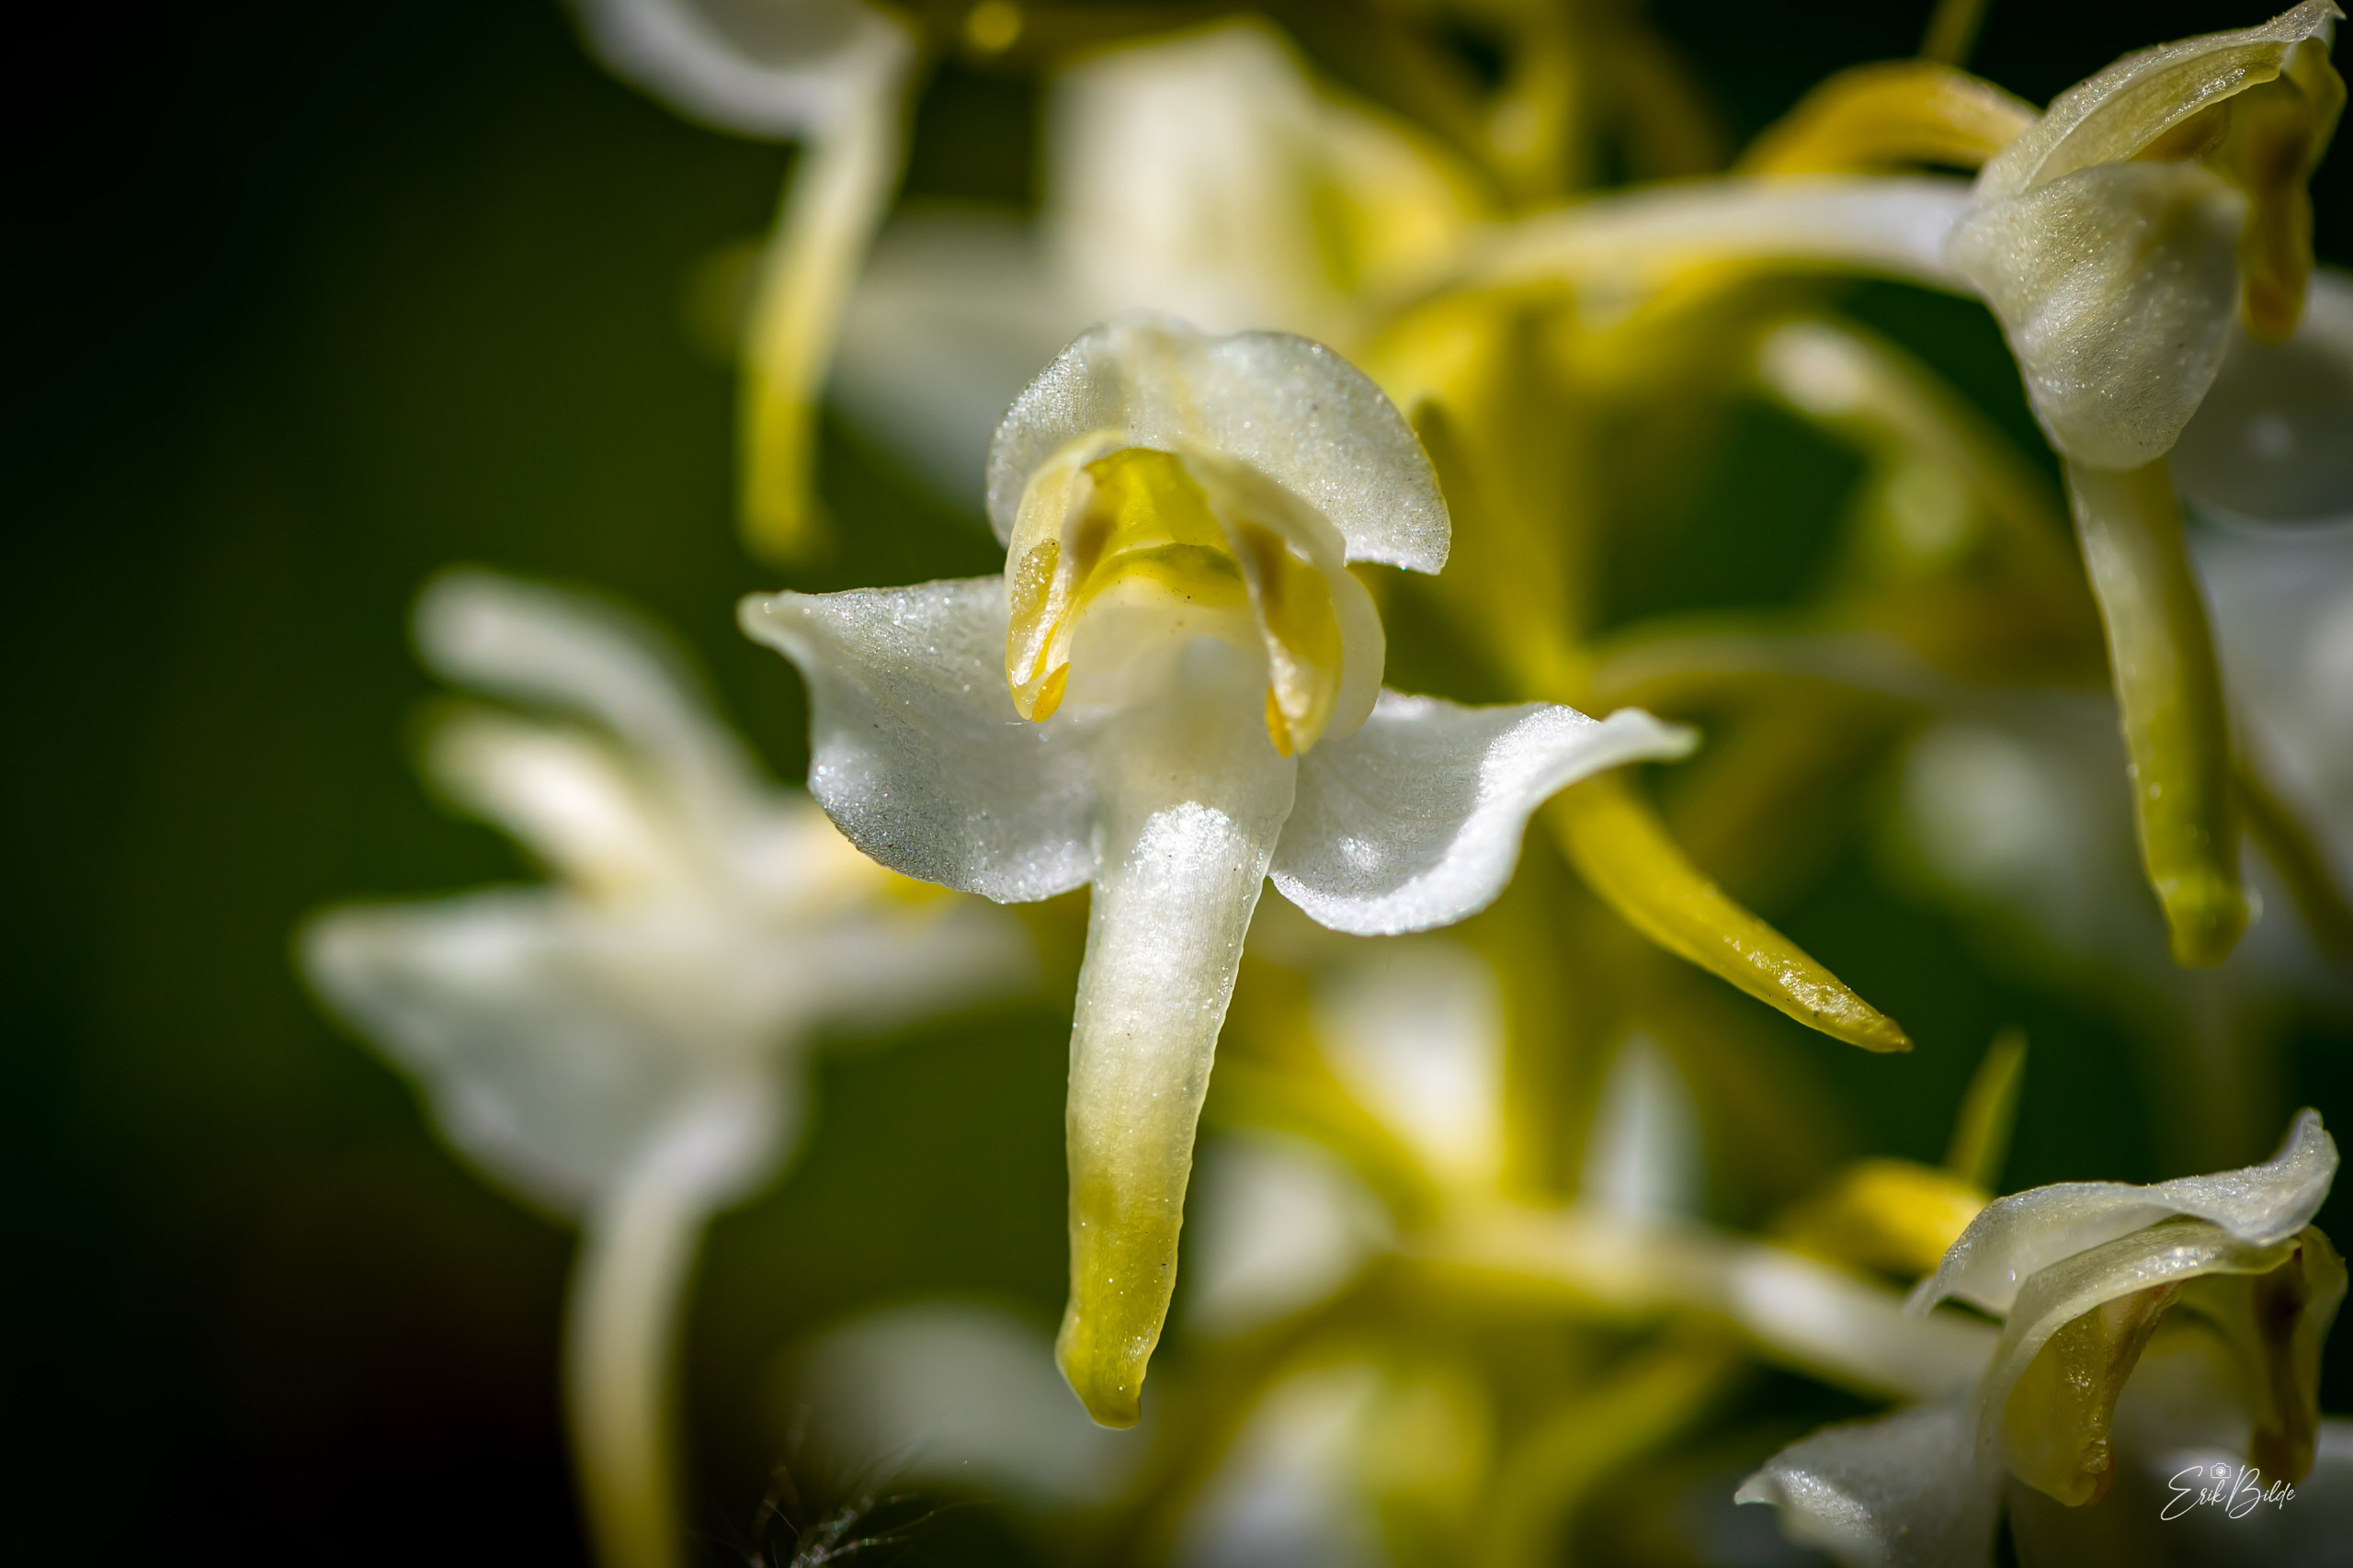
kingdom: Plantae
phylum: Tracheophyta
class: Liliopsida
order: Asparagales
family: Orchidaceae
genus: Platanthera
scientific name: Platanthera chlorantha
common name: Skov-gøgelilje
